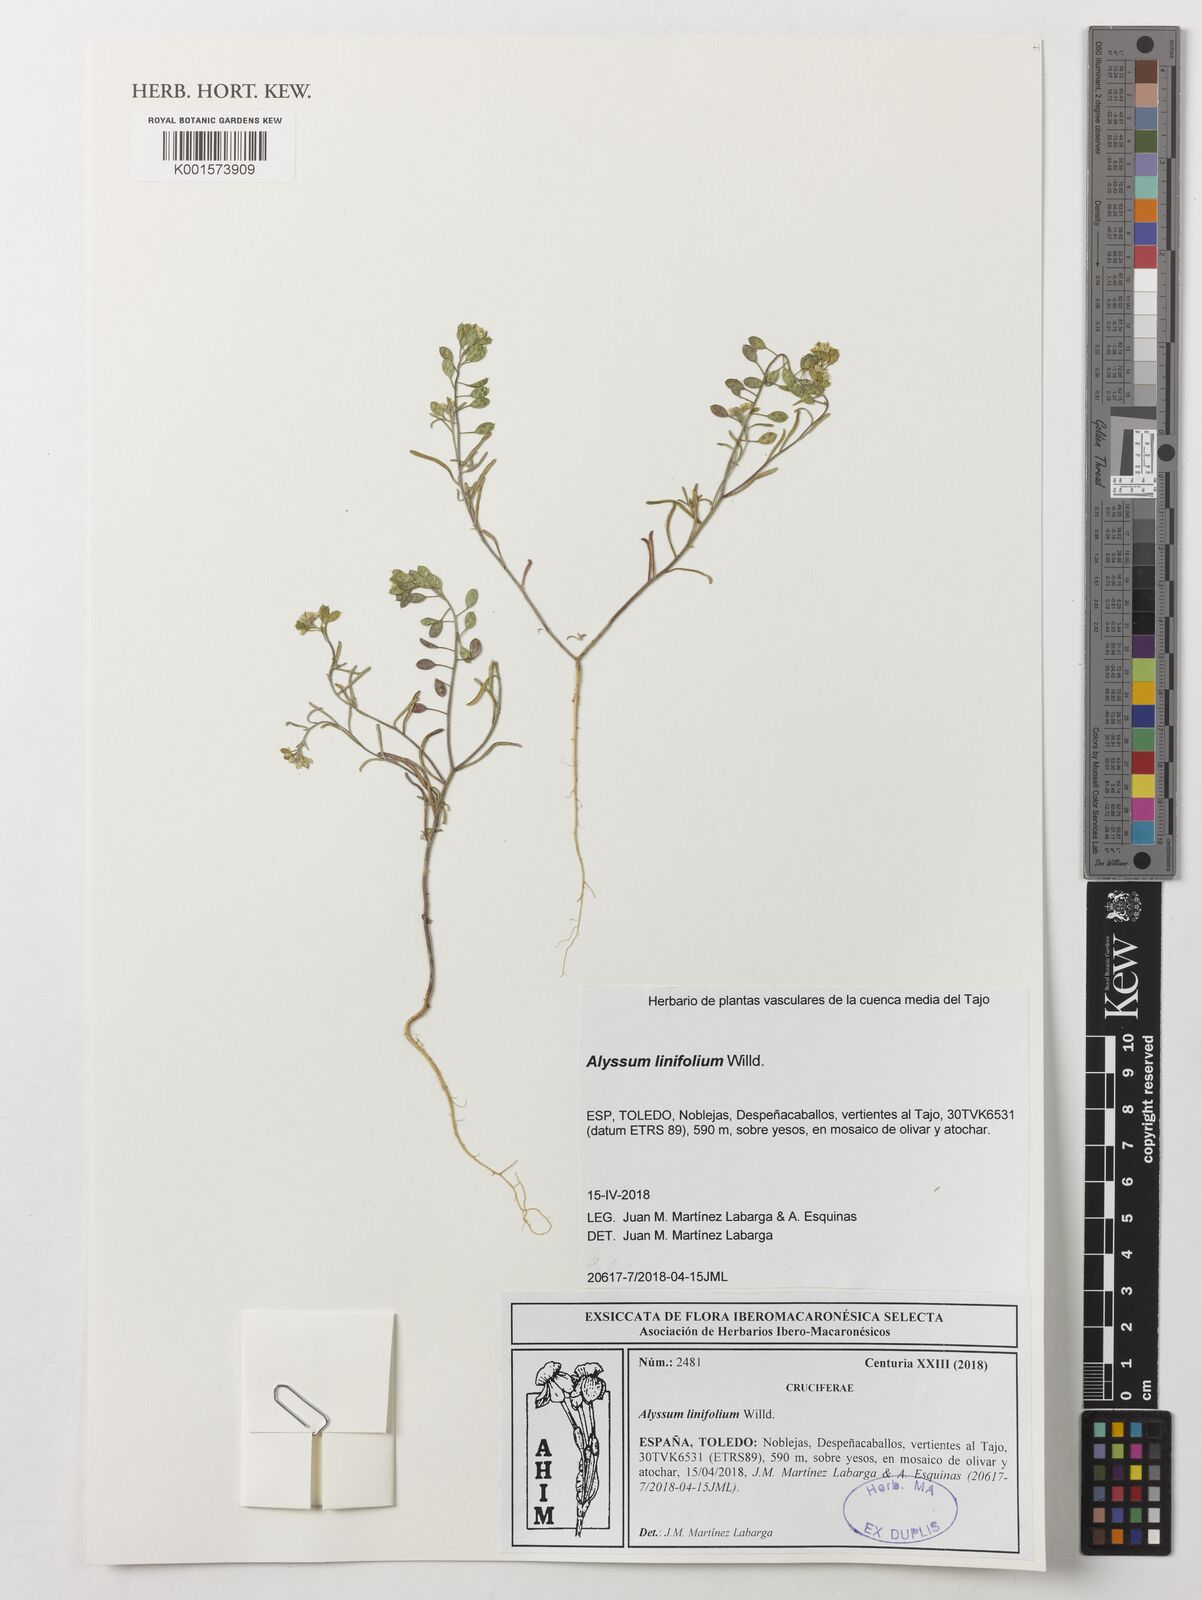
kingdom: Plantae
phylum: Tracheophyta
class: Magnoliopsida
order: Brassicales
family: Brassicaceae
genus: Meniocus
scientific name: Meniocus linifolius
